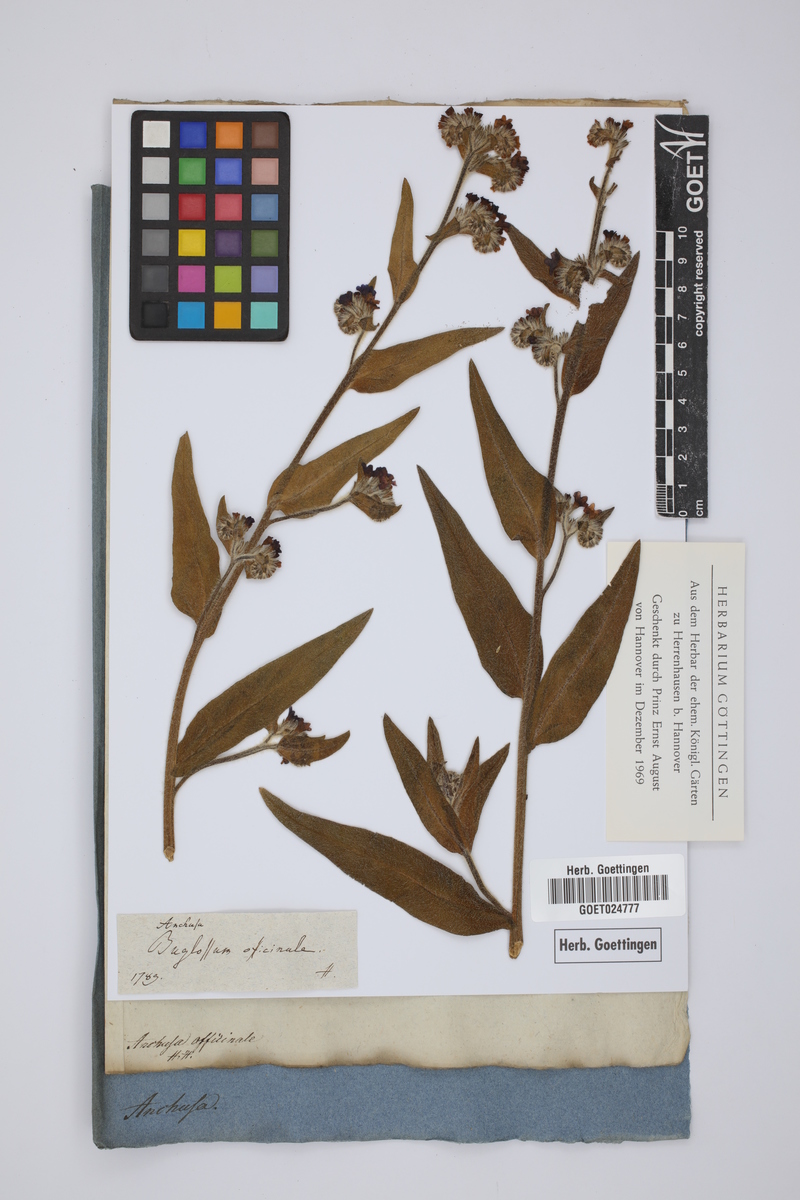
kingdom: Plantae
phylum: Tracheophyta
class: Magnoliopsida
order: Boraginales
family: Boraginaceae
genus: Anchusa
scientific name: Anchusa officinalis
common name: Alkanet
